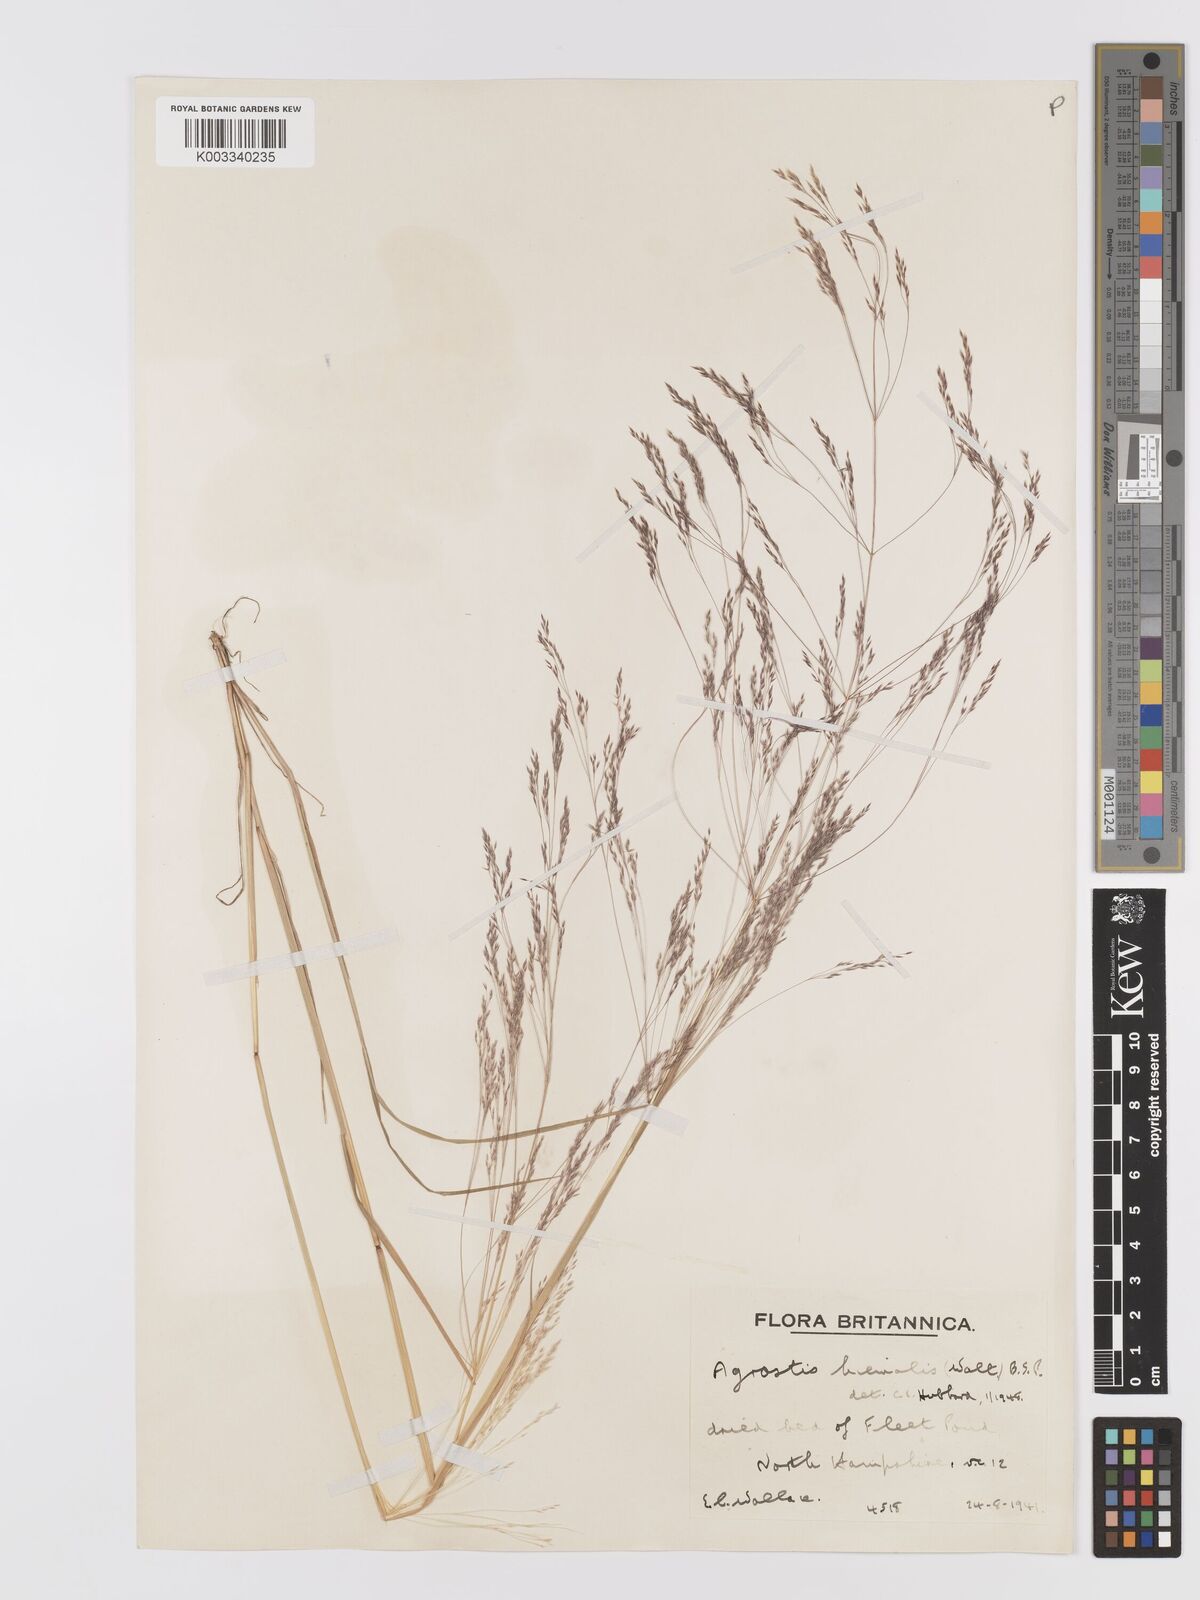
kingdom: Plantae
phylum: Tracheophyta
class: Liliopsida
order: Poales
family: Poaceae
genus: Agrostis
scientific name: Agrostis scabra
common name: Rough bent
